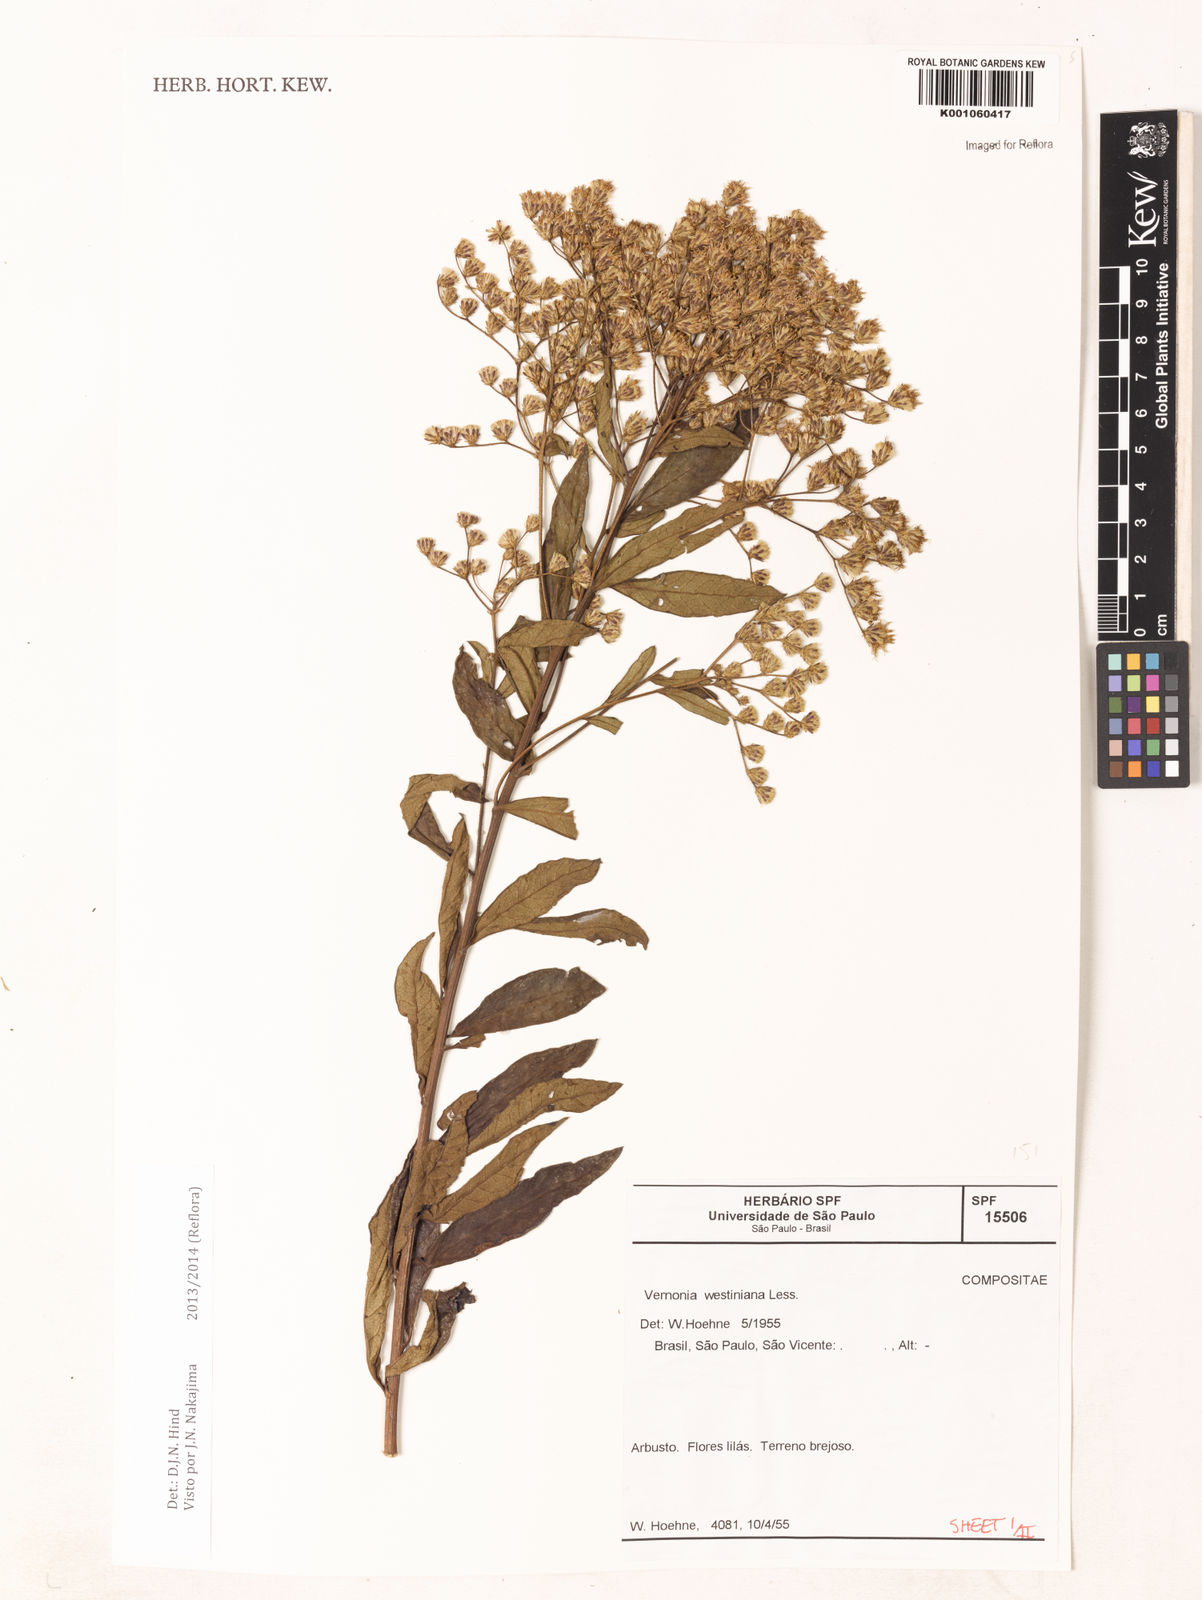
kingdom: Plantae
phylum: Tracheophyta
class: Magnoliopsida
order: Asterales
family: Asteraceae
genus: Vernonanthura
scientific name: Vernonanthura westiniana
